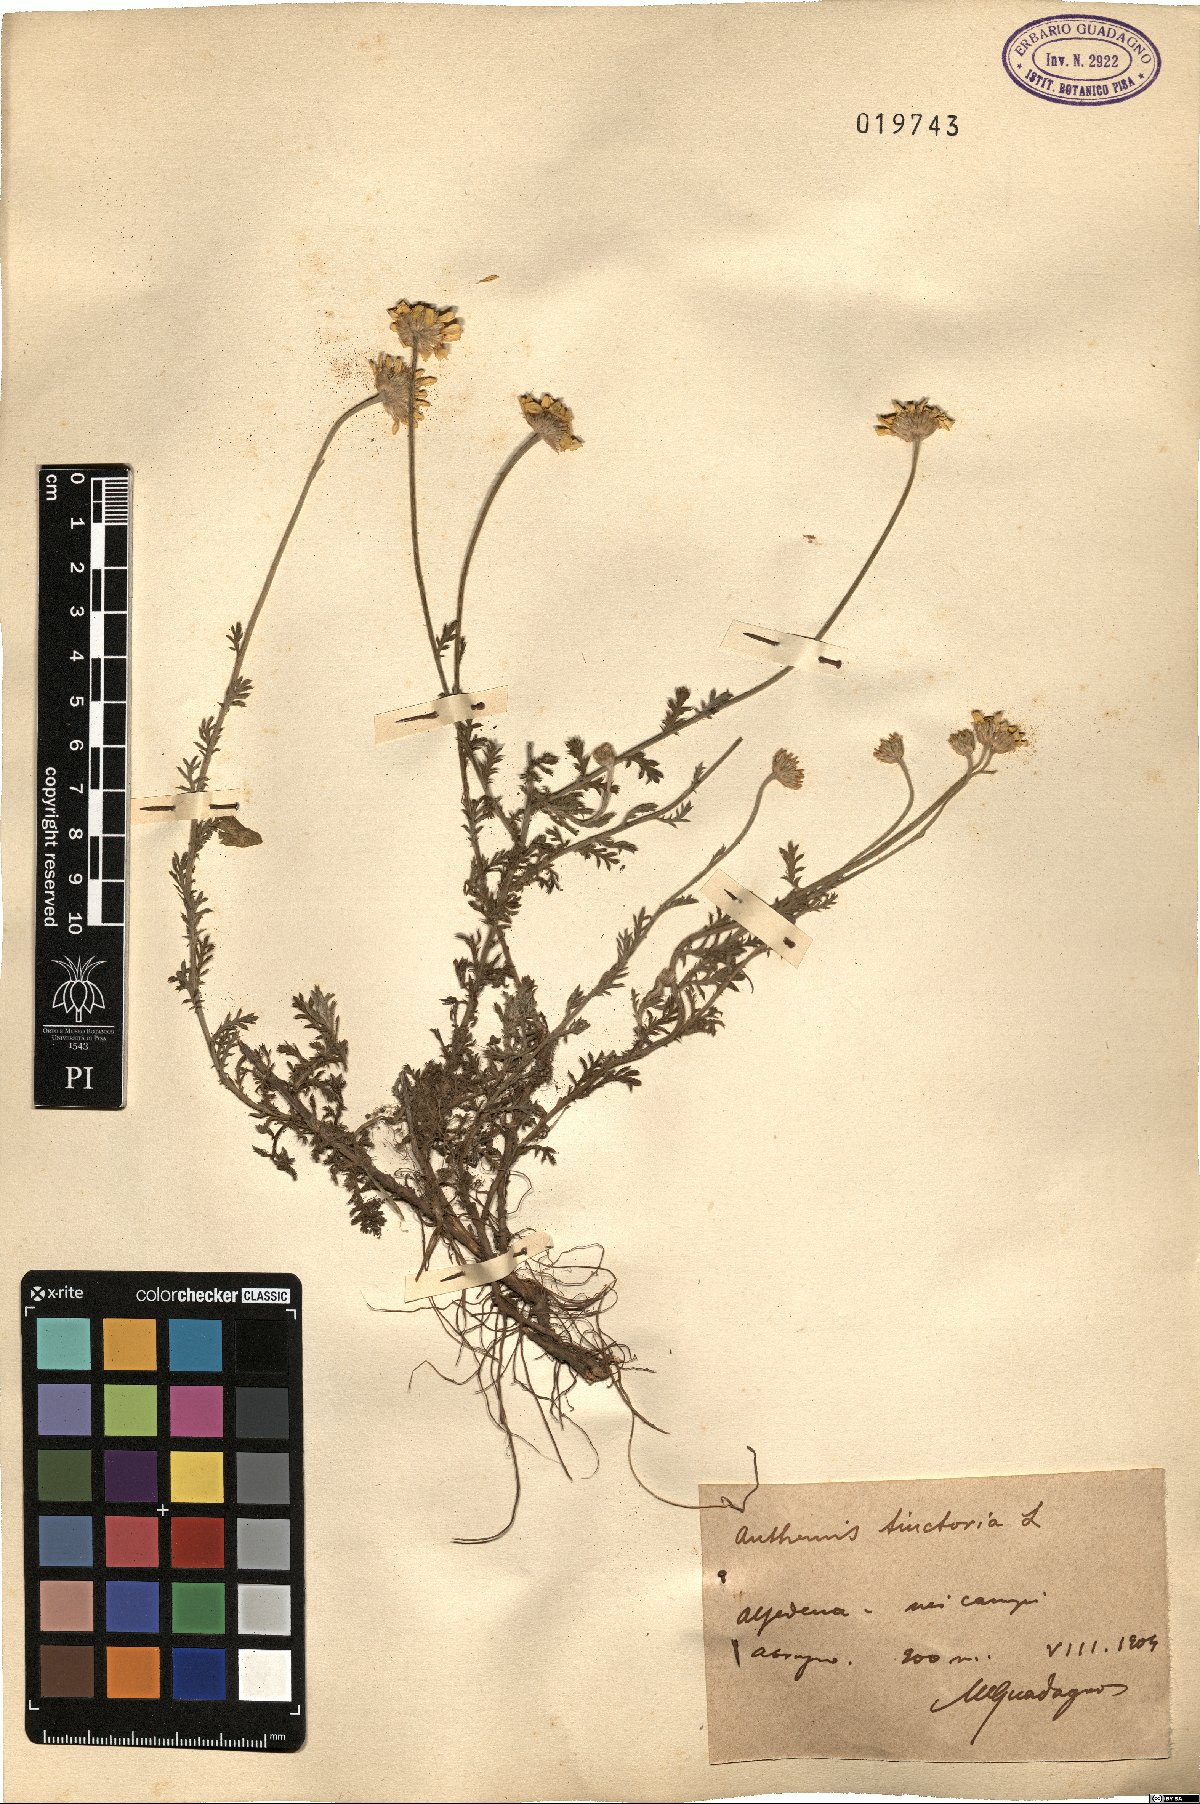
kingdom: Plantae
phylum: Tracheophyta
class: Magnoliopsida
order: Asterales
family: Asteraceae
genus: Cota
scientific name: Cota tinctoria
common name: Golden chamomile
